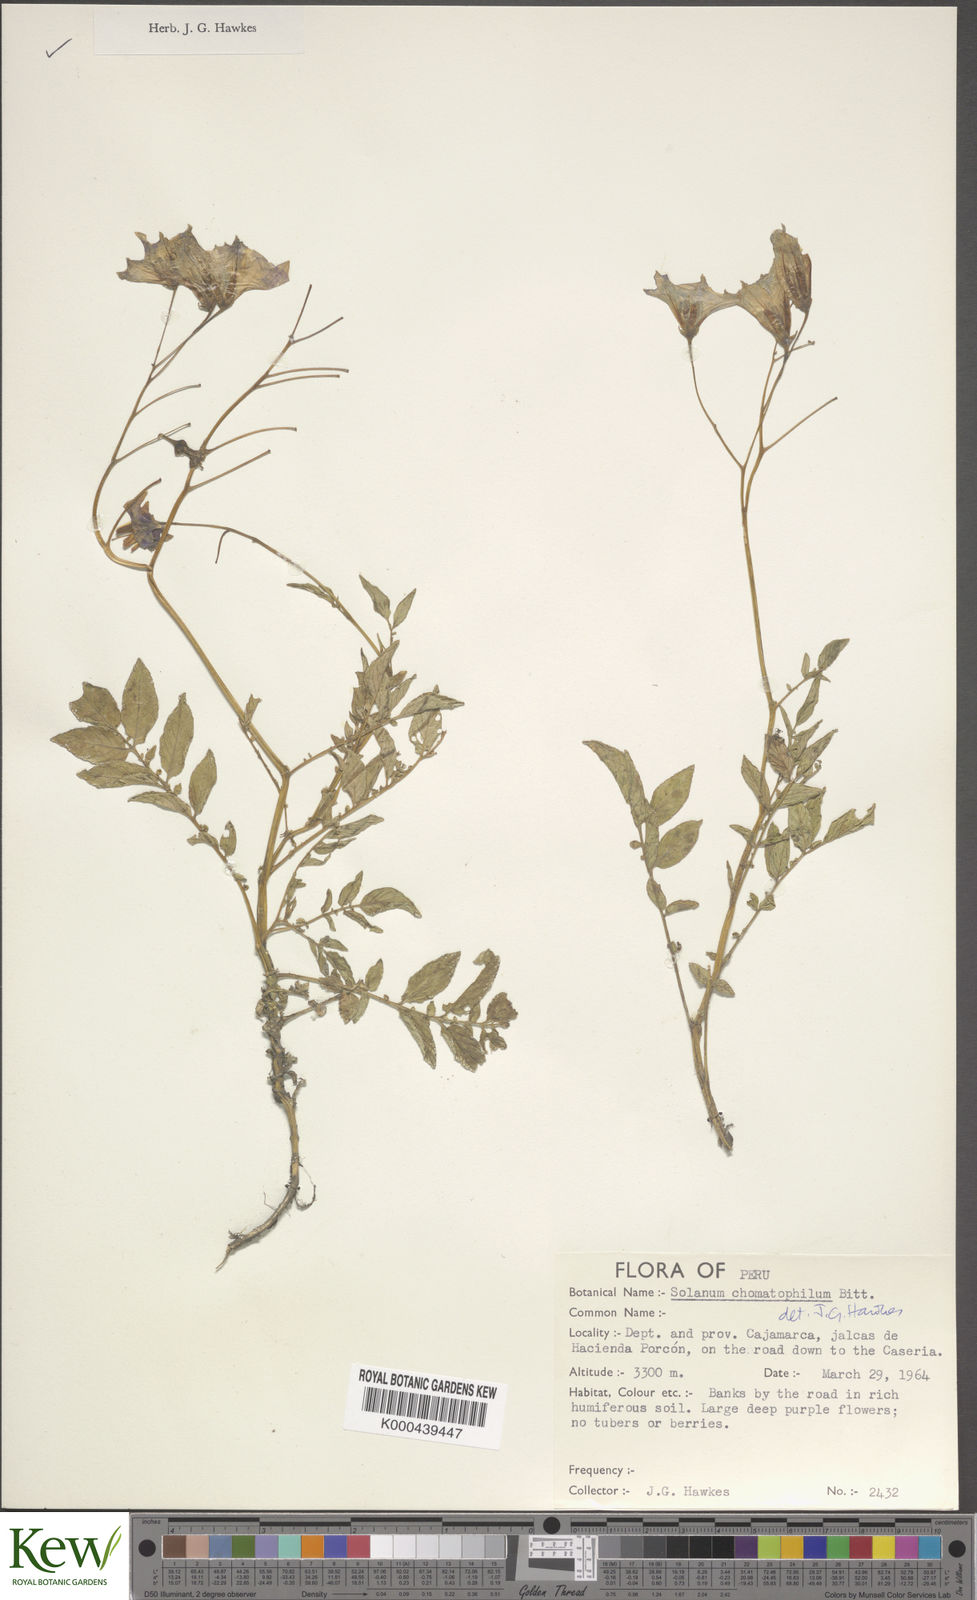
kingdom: Plantae
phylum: Tracheophyta
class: Magnoliopsida
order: Solanales
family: Solanaceae
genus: Solanum
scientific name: Solanum chomatophilum
